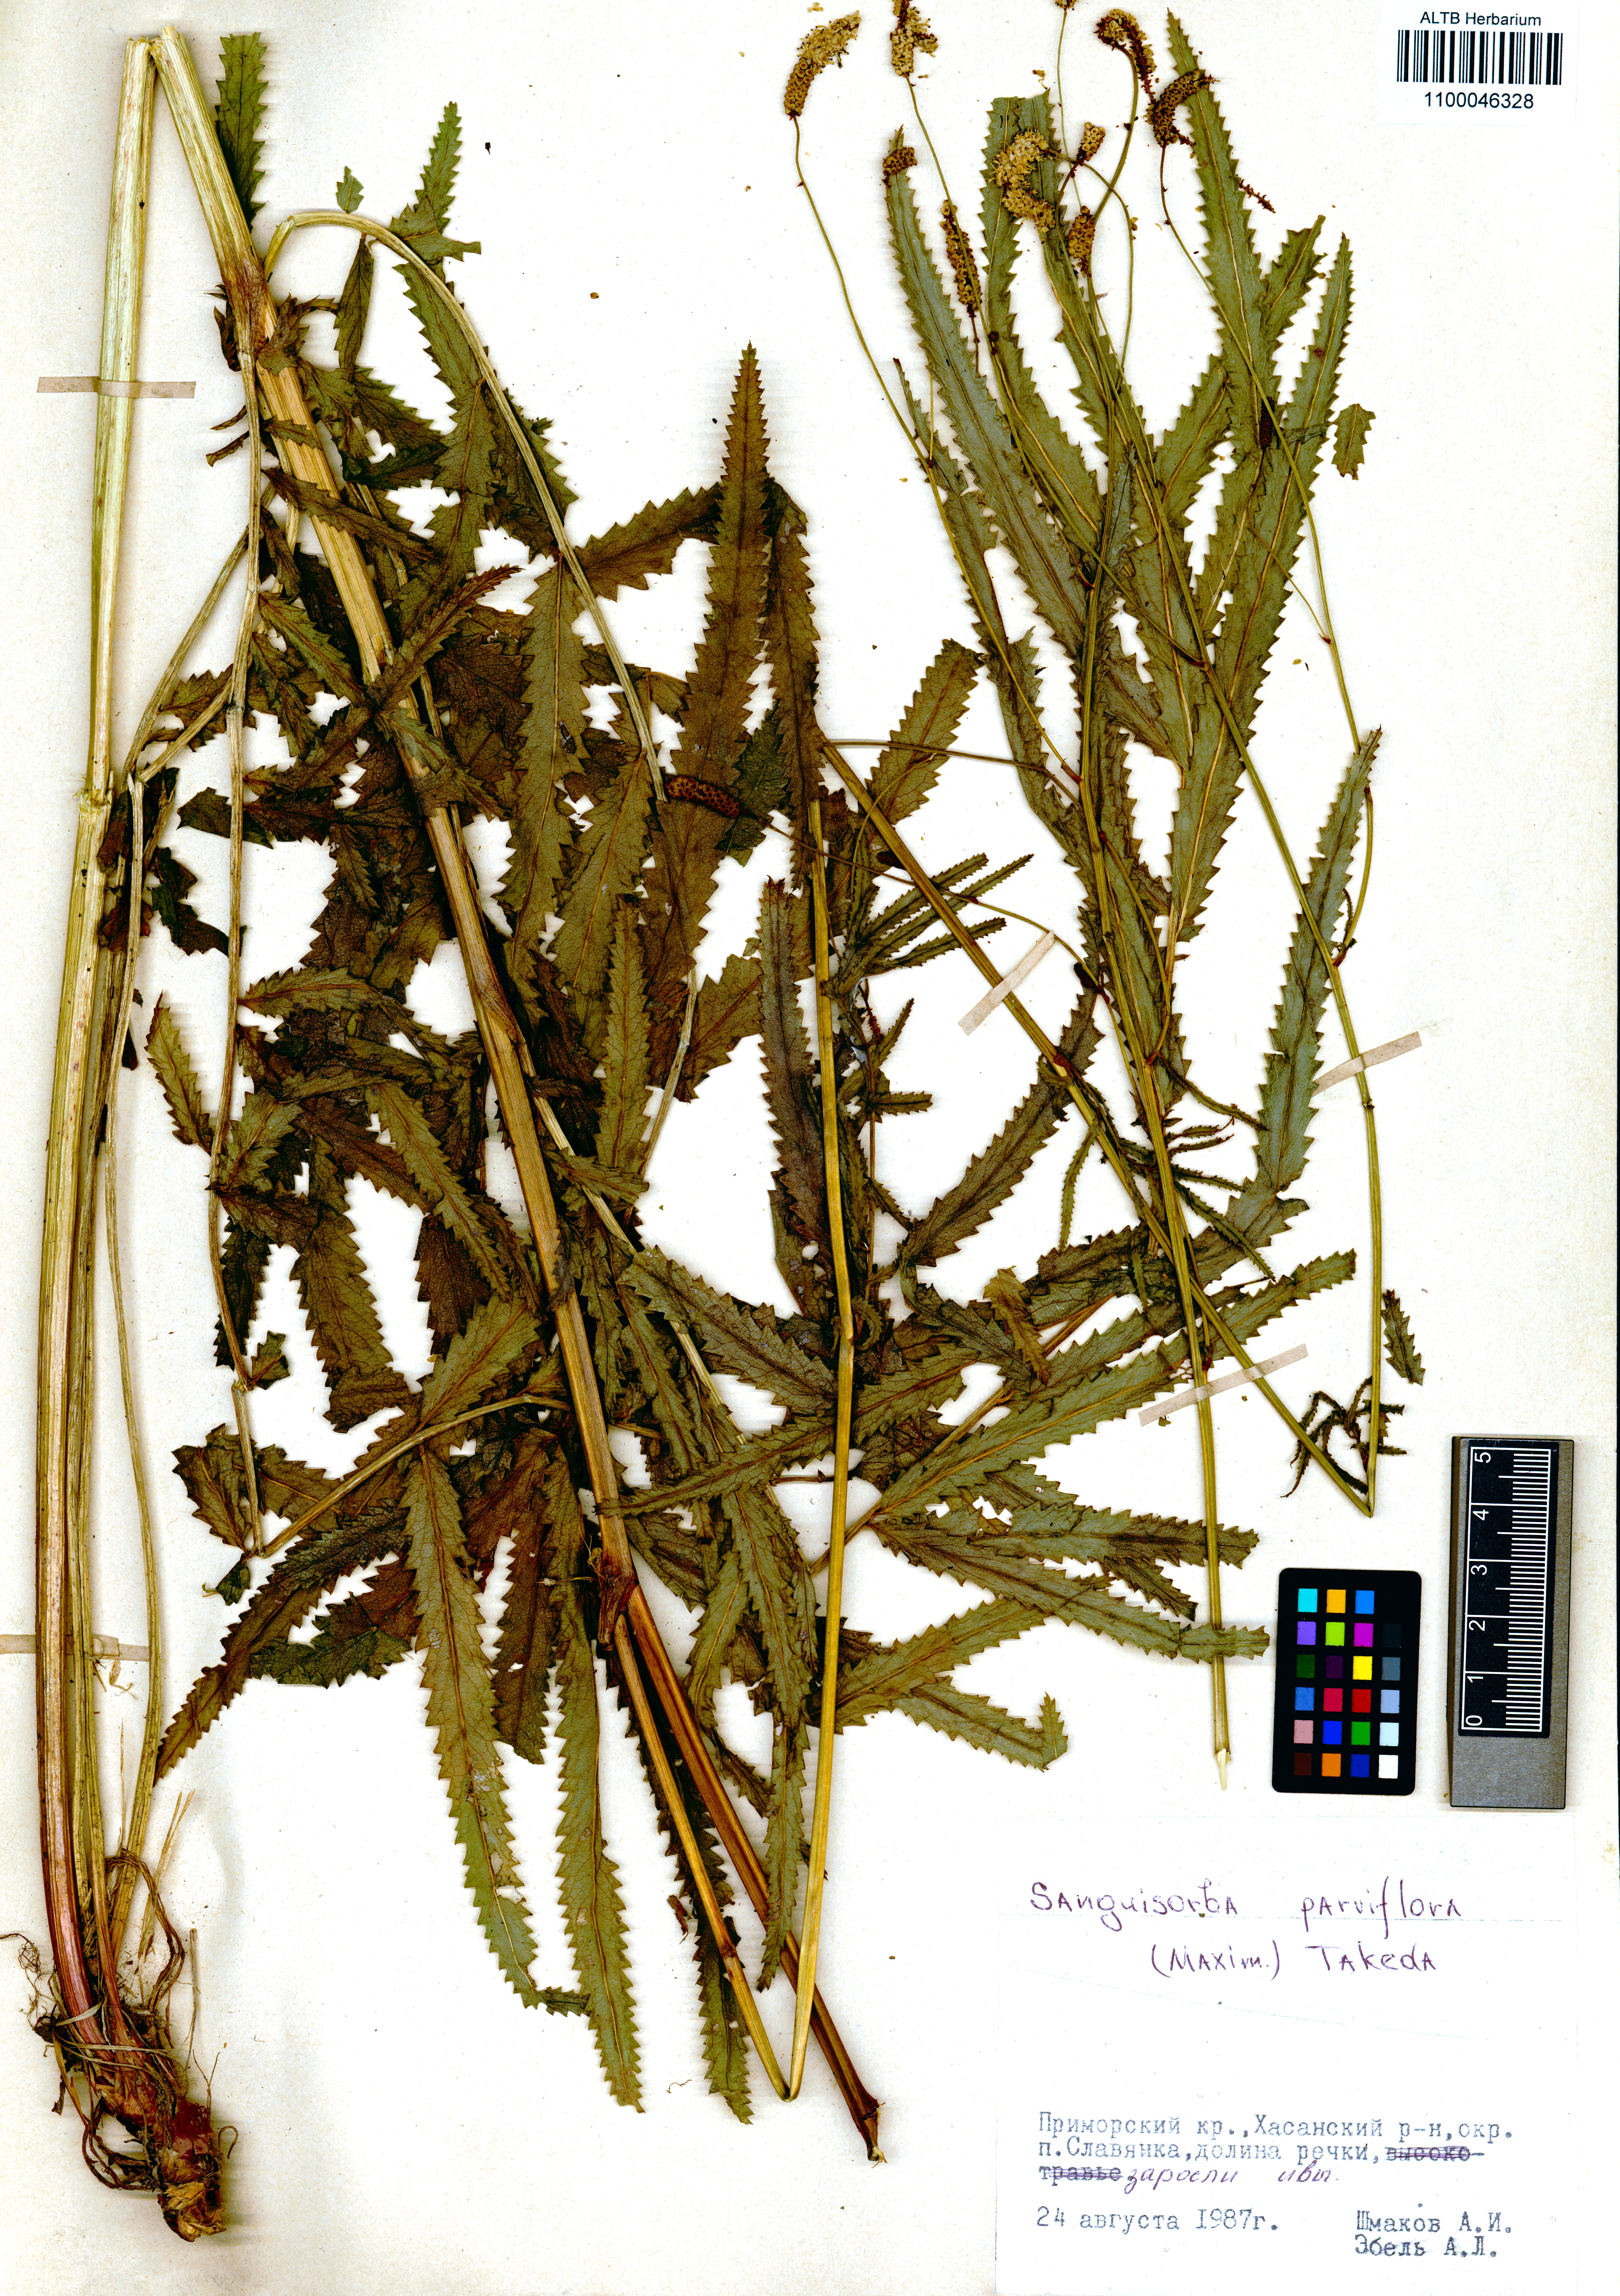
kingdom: Plantae
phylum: Tracheophyta
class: Magnoliopsida
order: Rosales
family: Rosaceae
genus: Poterium
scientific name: Poterium tenuifolium
